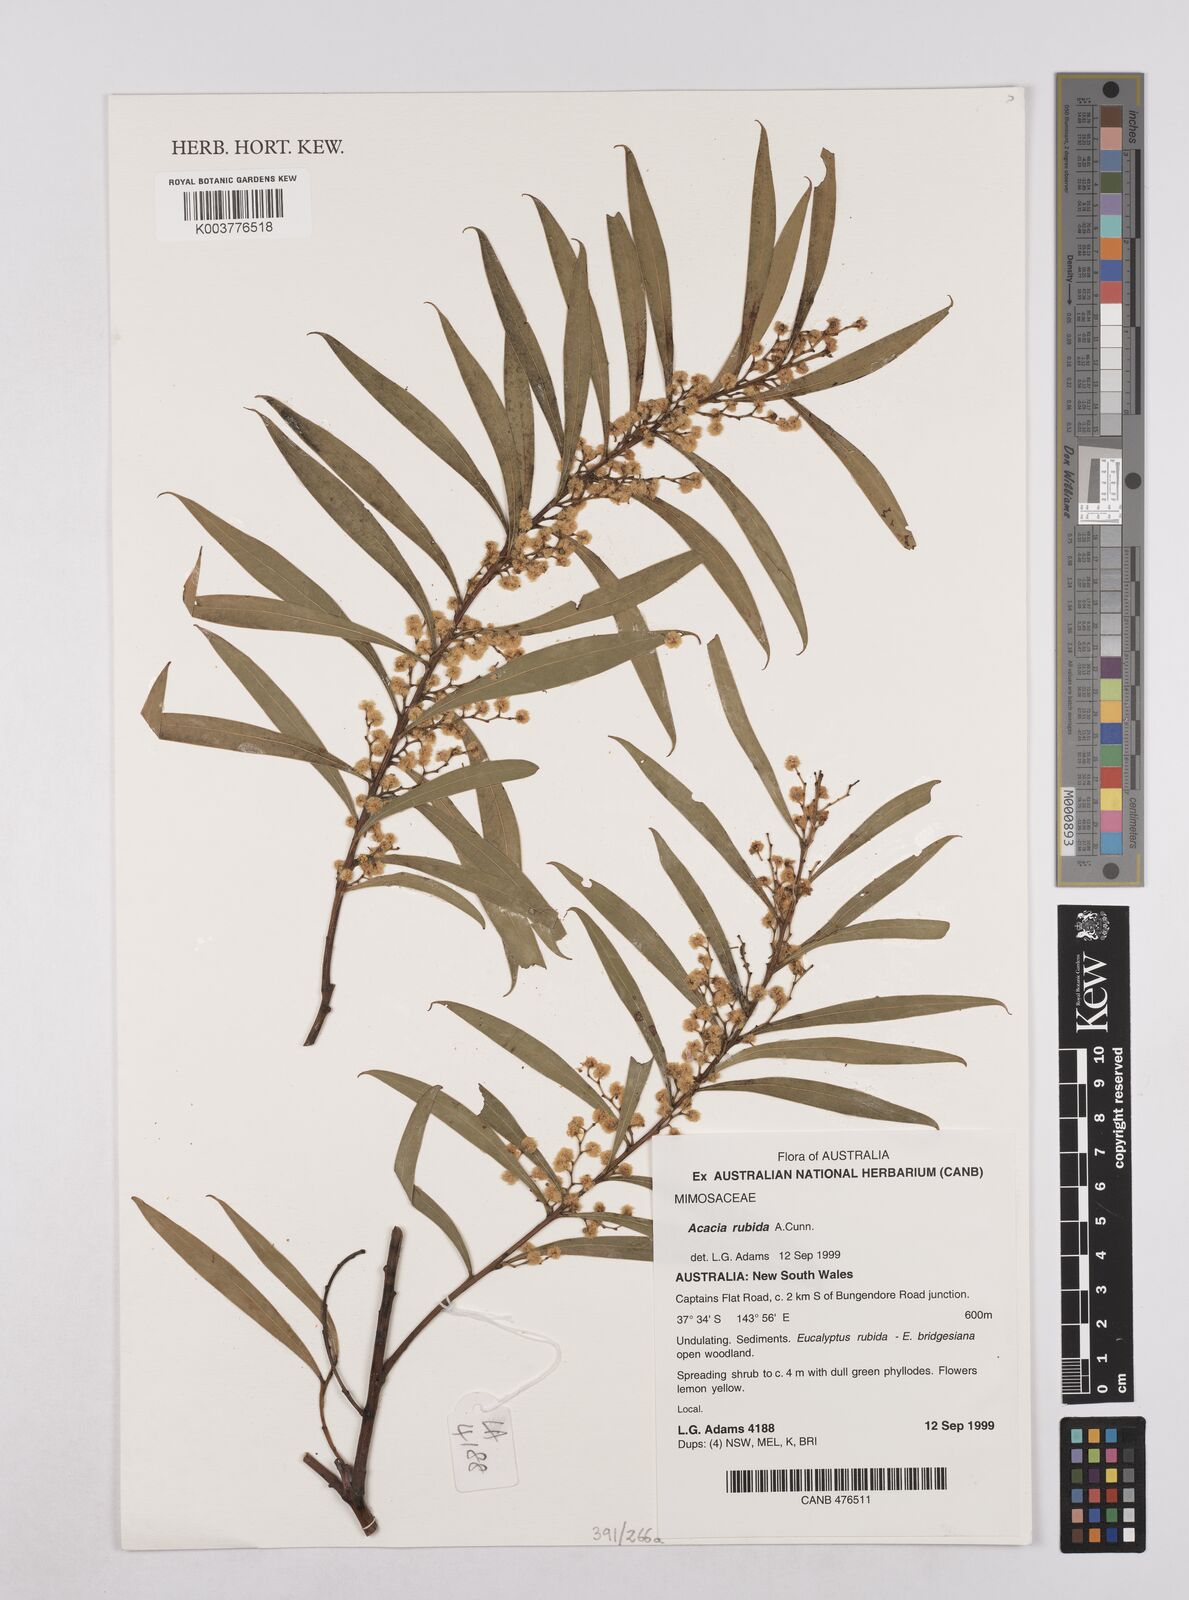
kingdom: Plantae
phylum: Tracheophyta
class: Magnoliopsida
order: Fabales
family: Fabaceae
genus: Acacia
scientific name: Acacia rubida
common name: Red leaf wattle
